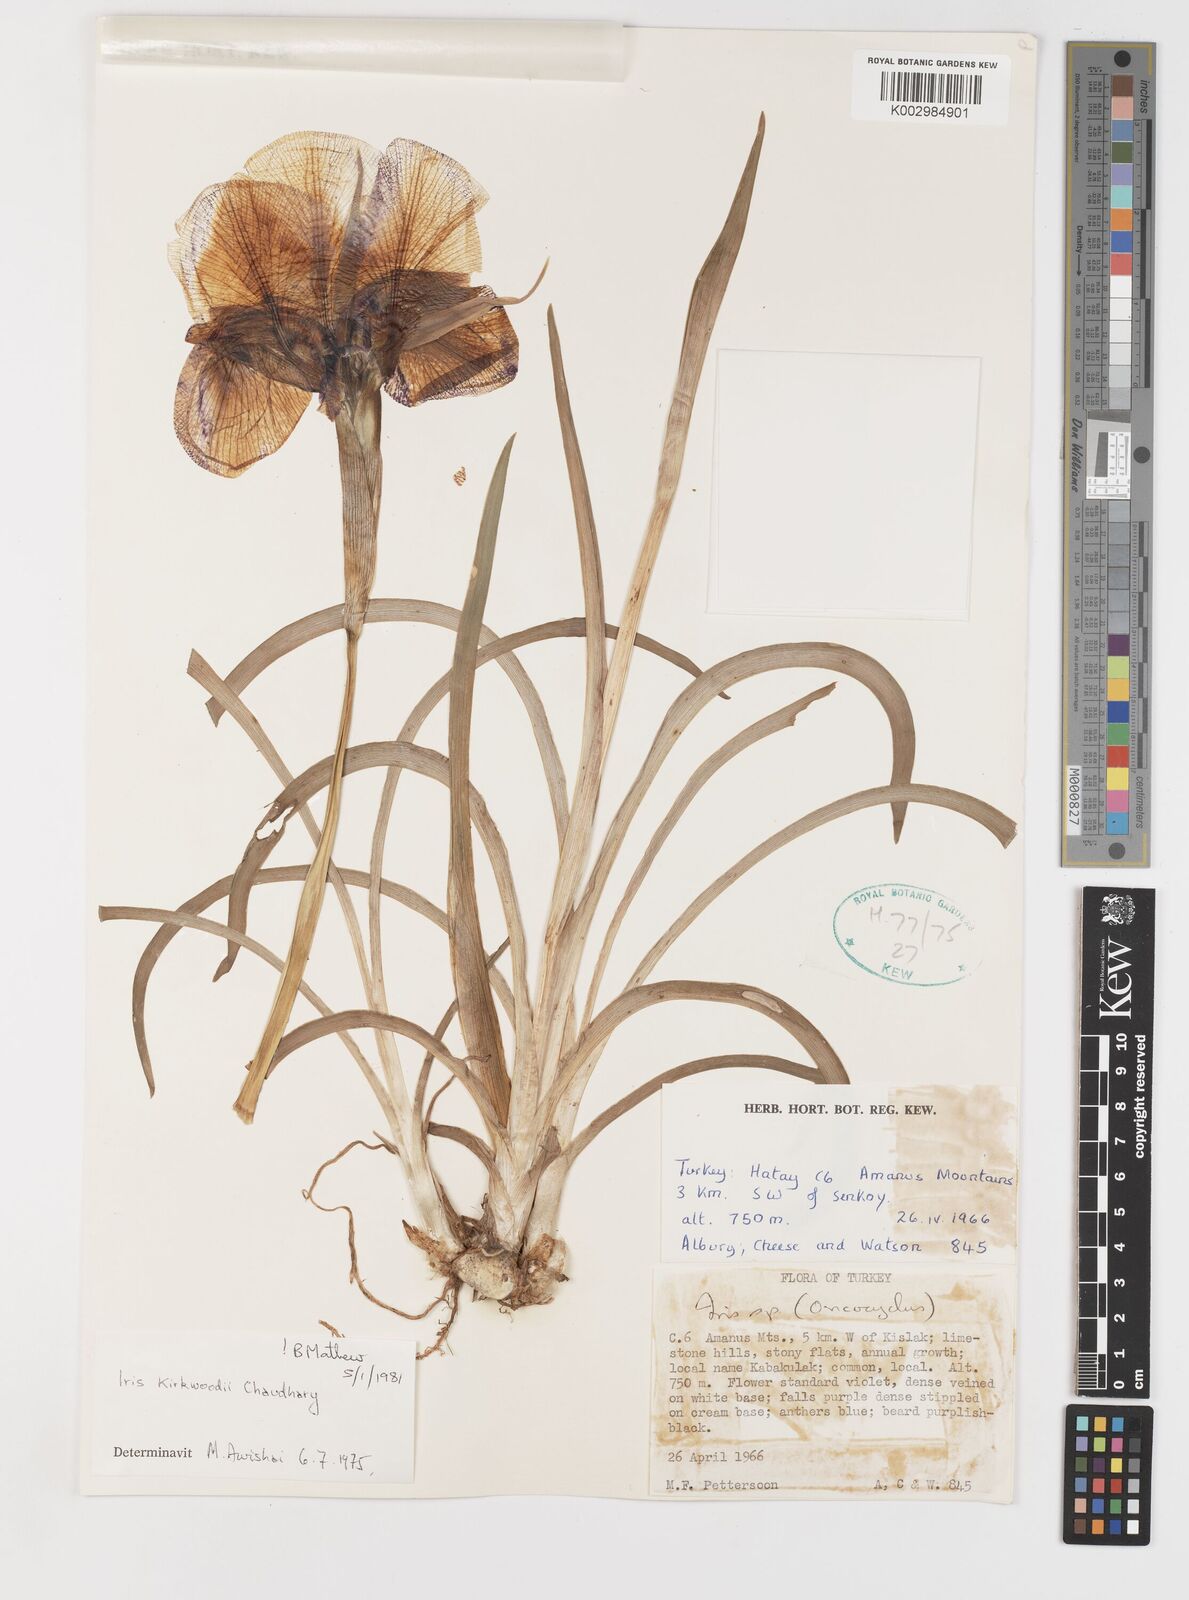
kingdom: Plantae
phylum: Tracheophyta
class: Liliopsida
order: Asparagales
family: Iridaceae
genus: Iris
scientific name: Iris kirkwoodiae
